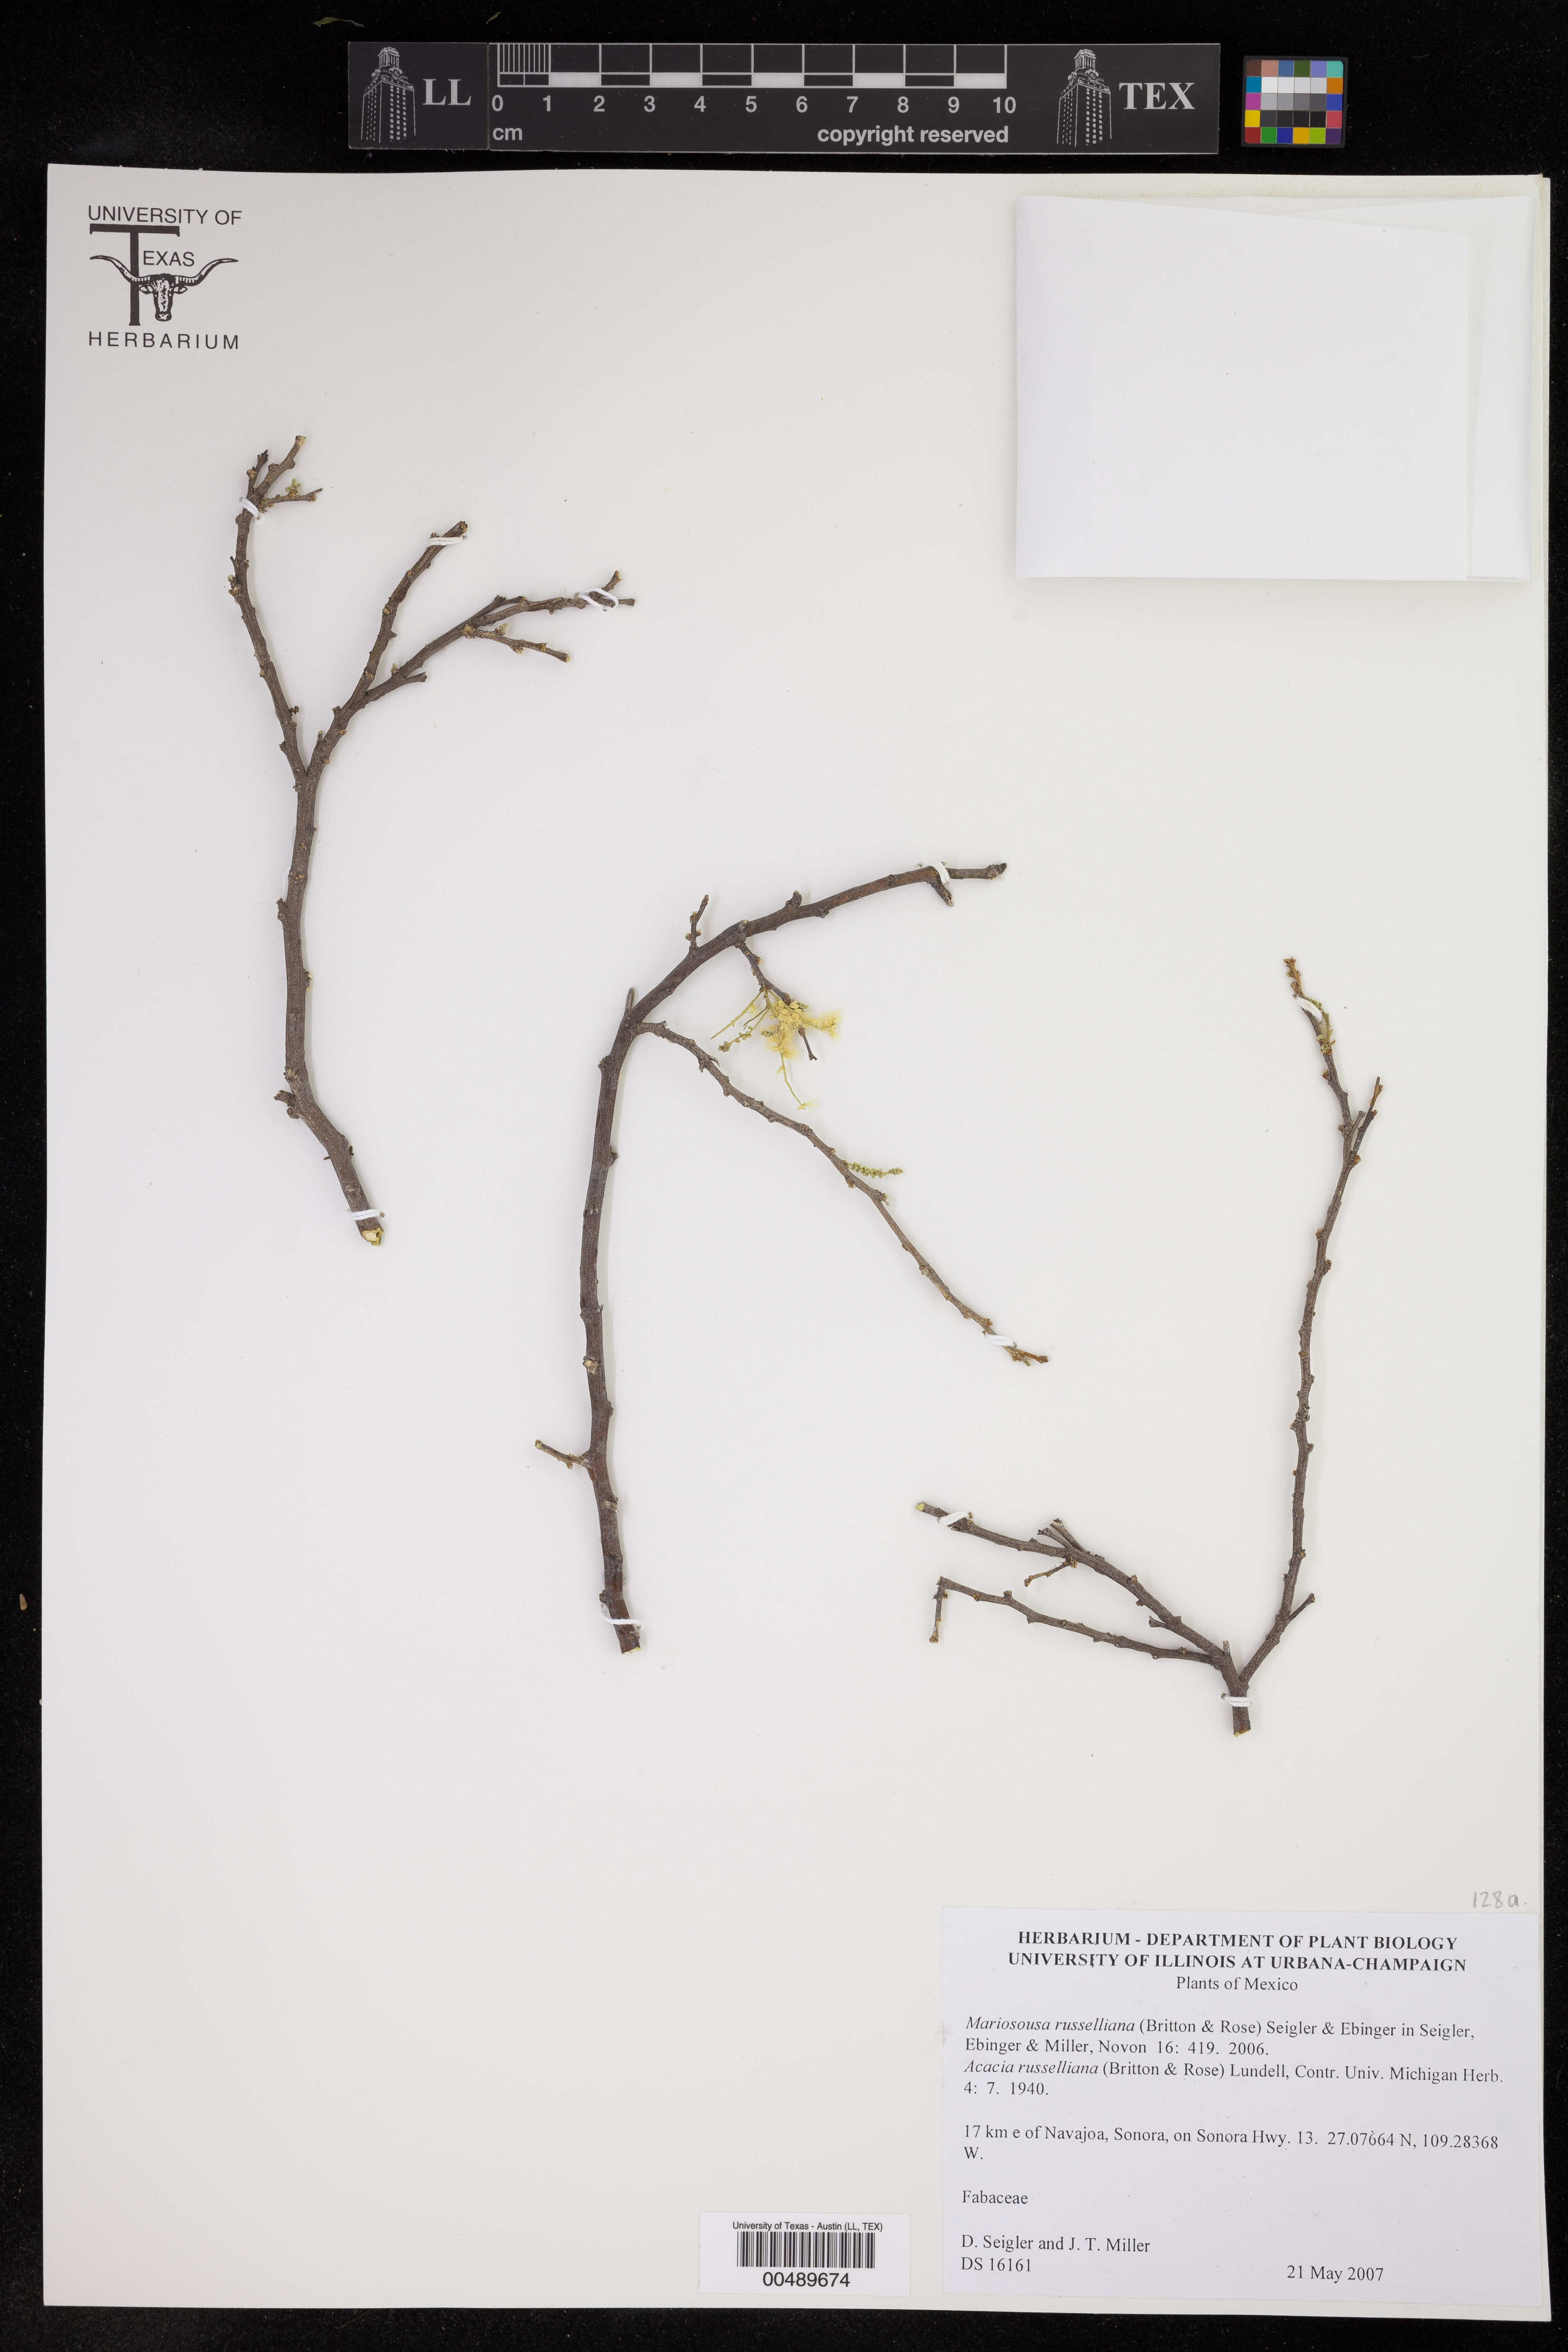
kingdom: Plantae
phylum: Tracheophyta
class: Magnoliopsida
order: Fabales
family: Fabaceae
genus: Mariosousa
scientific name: Mariosousa russelliana
